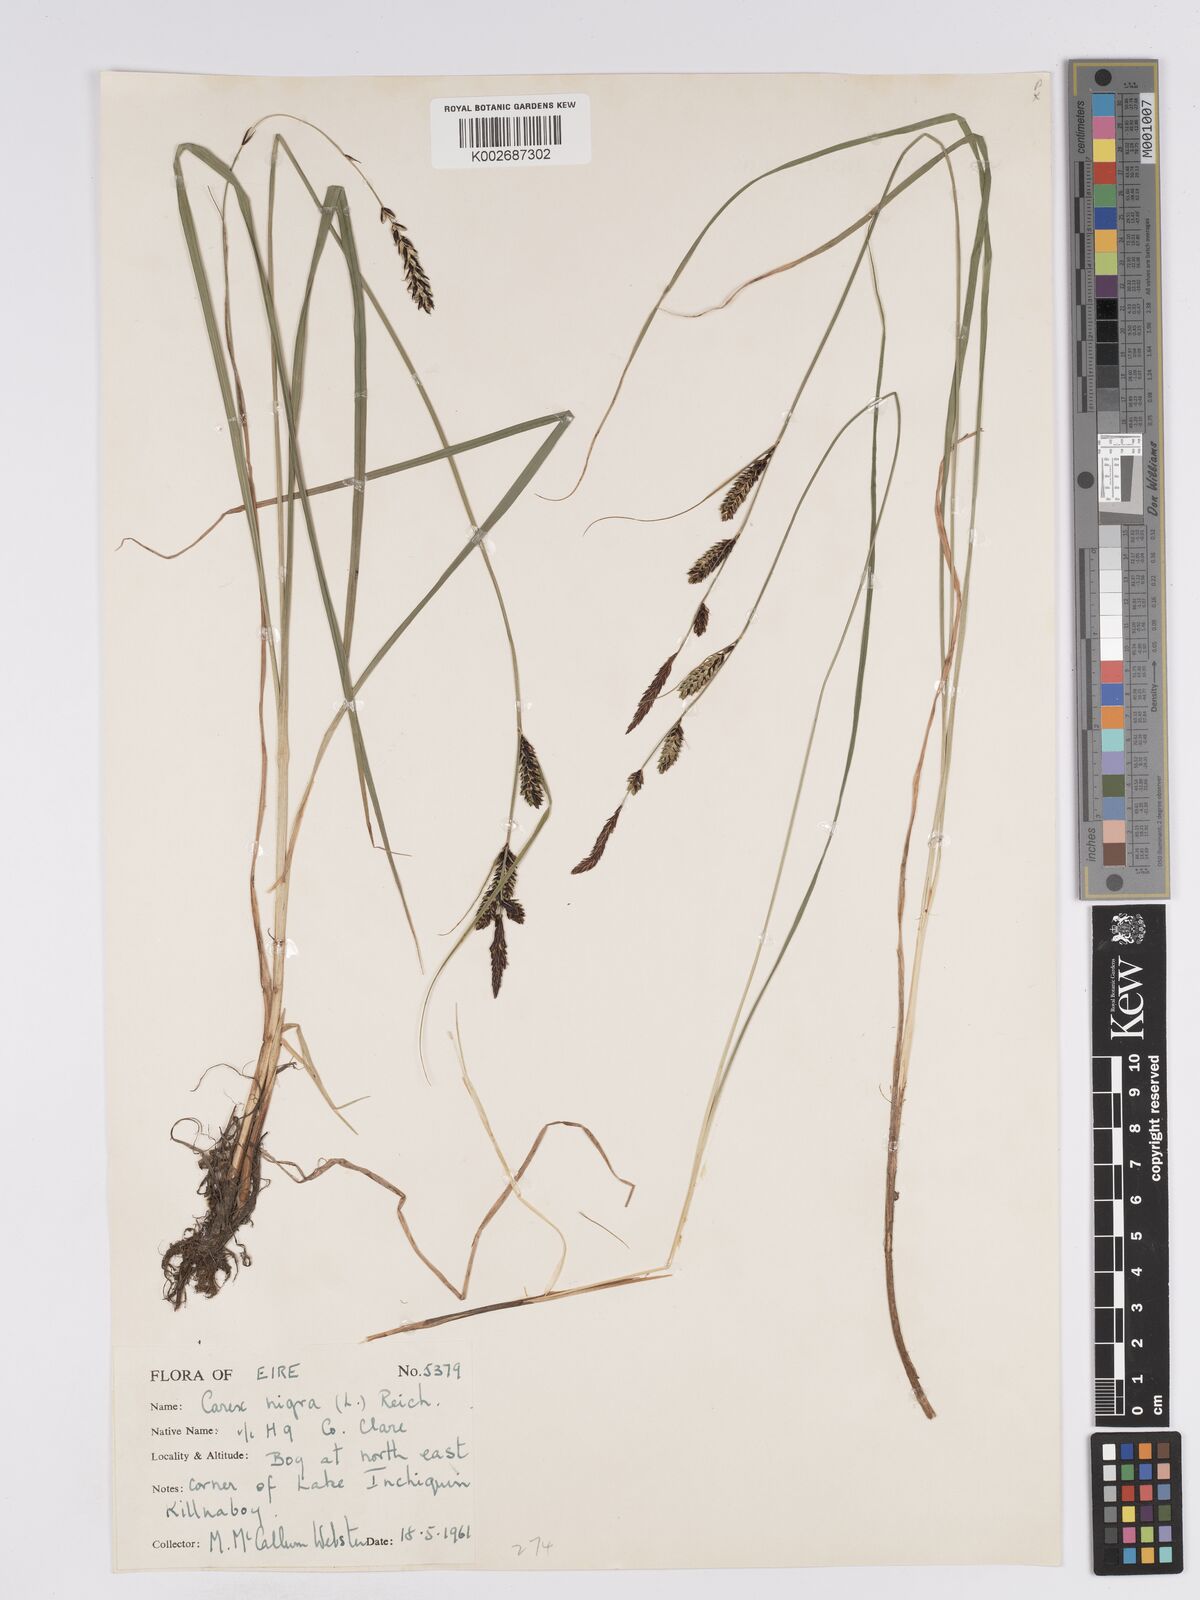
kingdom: Plantae
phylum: Tracheophyta
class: Liliopsida
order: Poales
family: Cyperaceae
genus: Carex
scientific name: Carex nigra
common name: Common sedge
